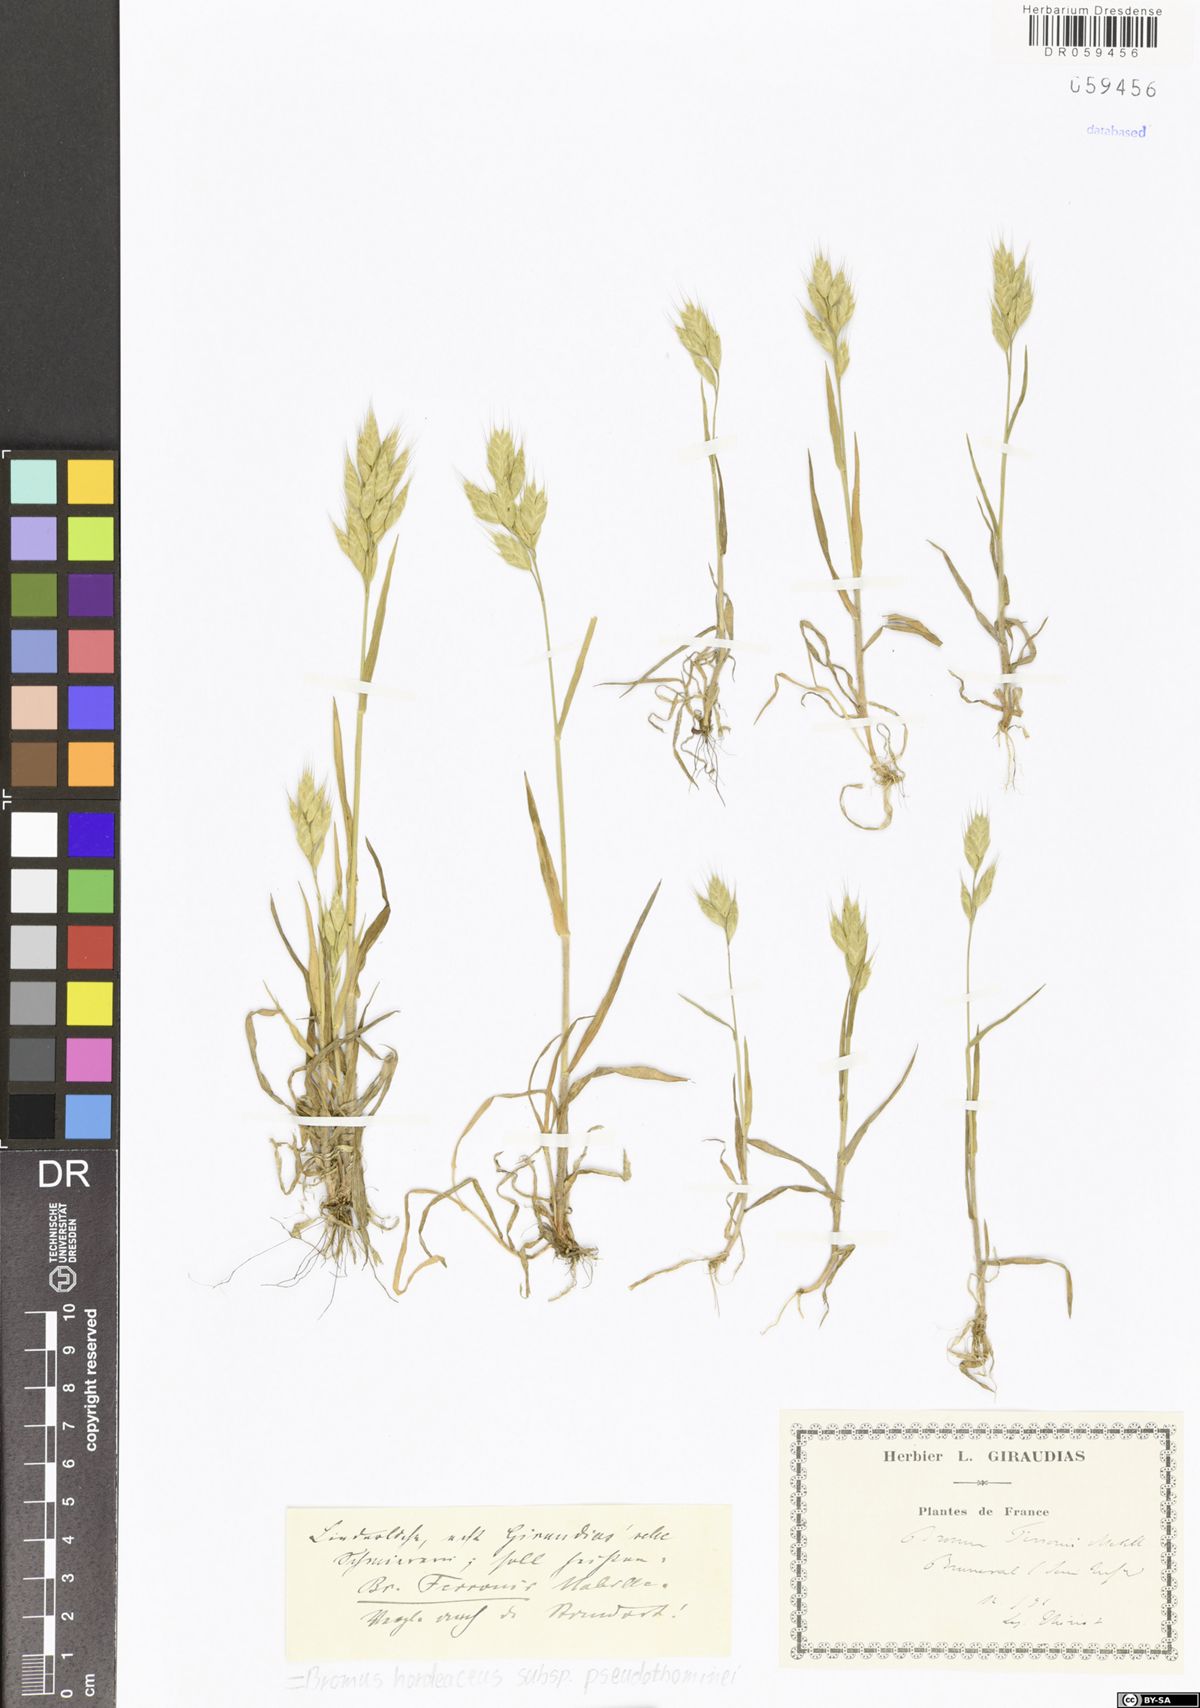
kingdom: Plantae
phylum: Tracheophyta
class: Liliopsida
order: Poales
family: Poaceae
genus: Bromus
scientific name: Bromus ferronii
